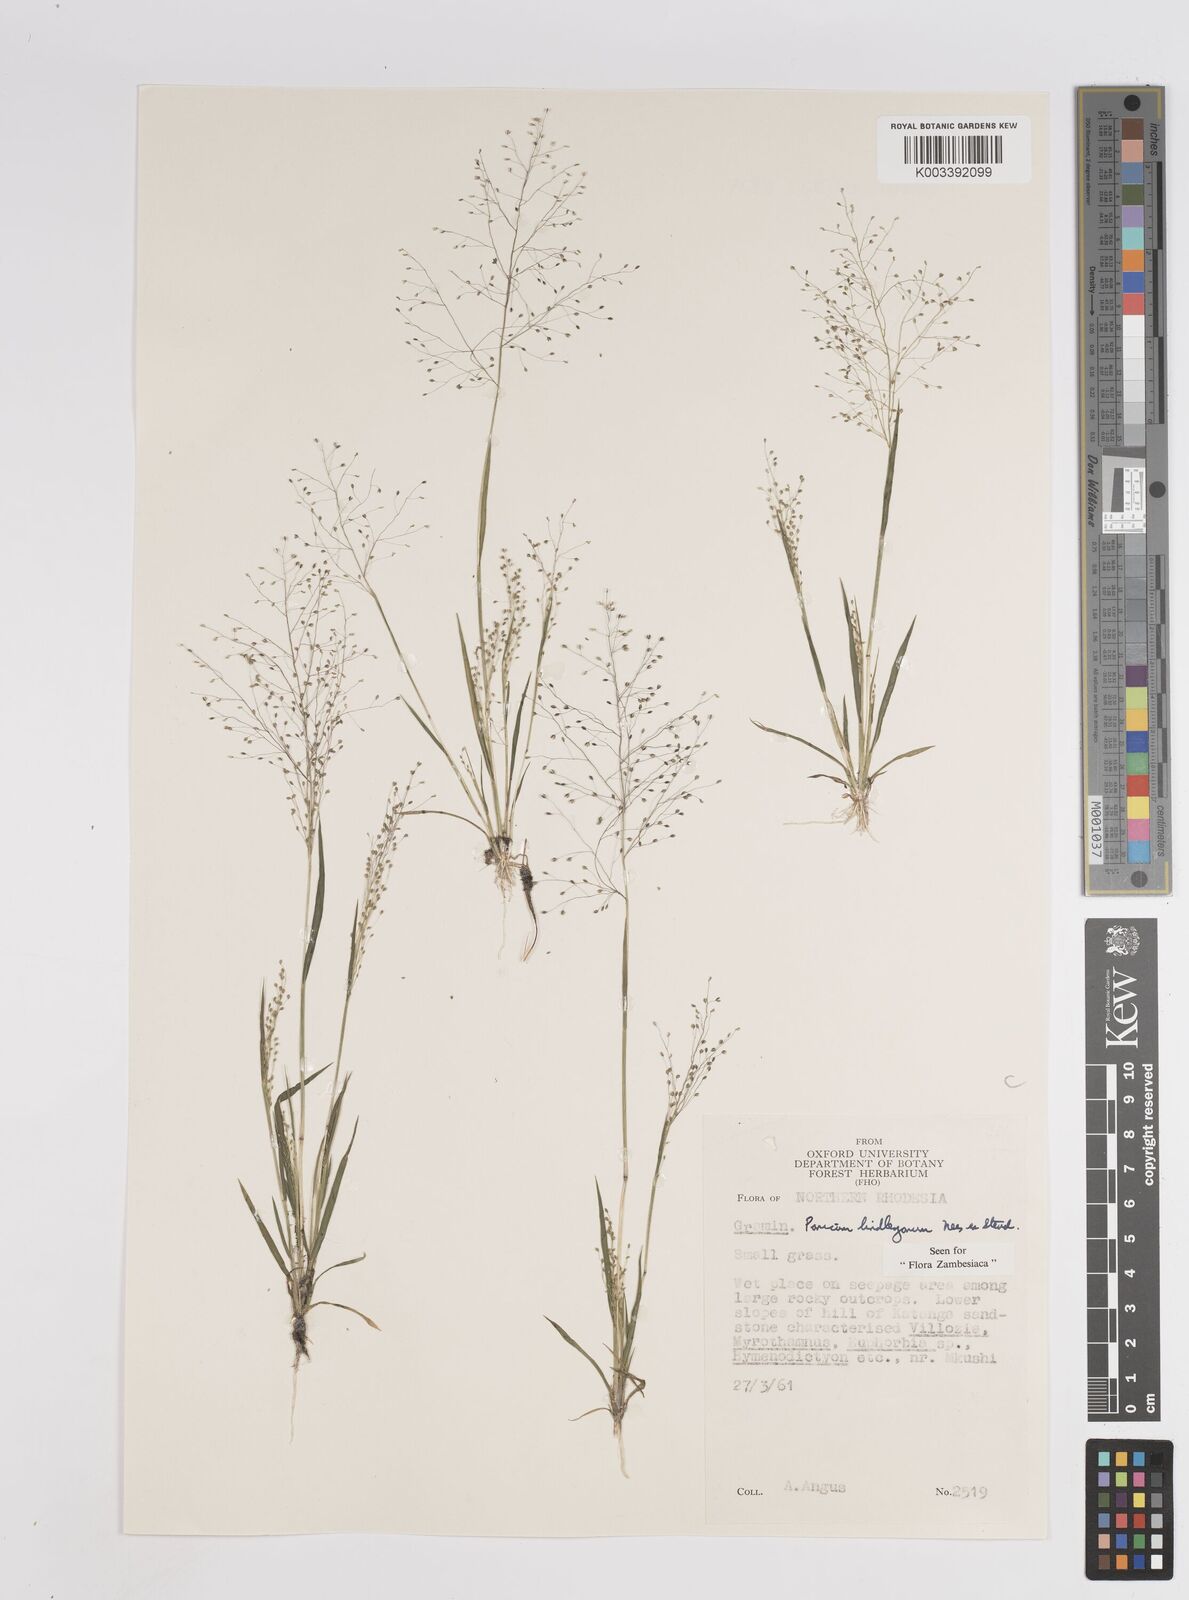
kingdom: Plantae
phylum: Tracheophyta
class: Liliopsida
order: Poales
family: Poaceae
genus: Trichanthecium
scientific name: Trichanthecium tenellum
